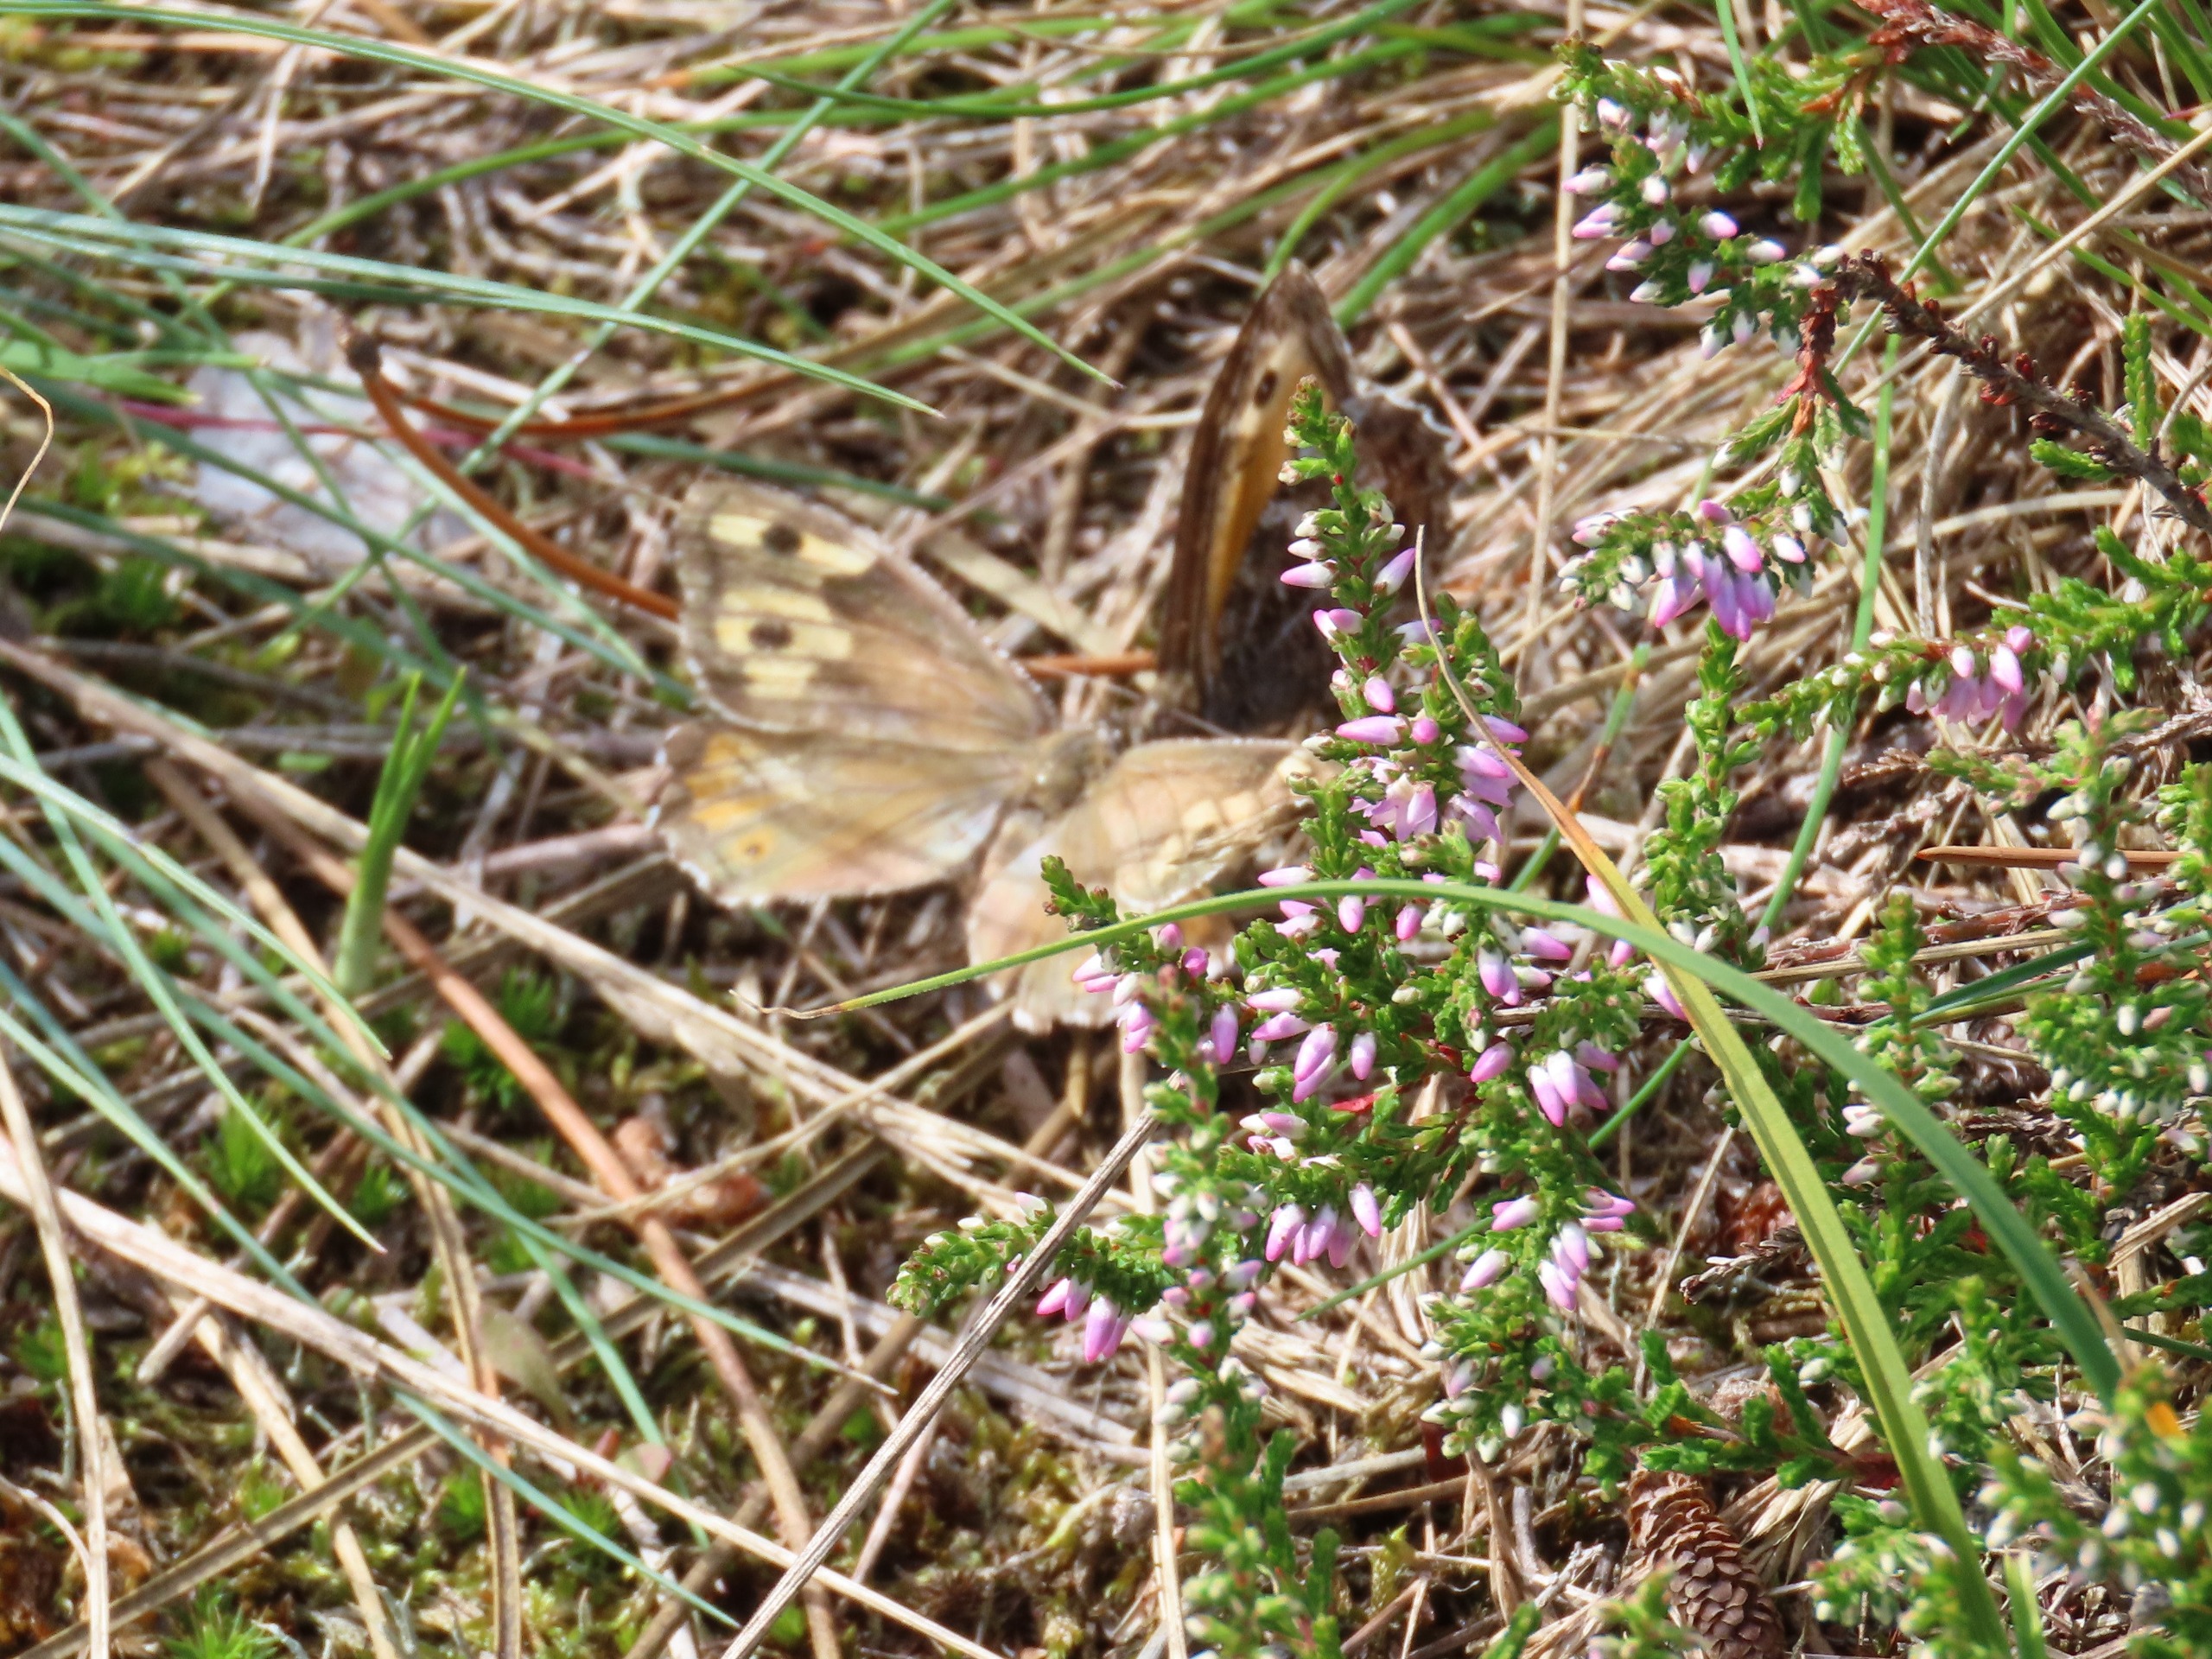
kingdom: Animalia
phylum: Arthropoda
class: Insecta
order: Lepidoptera
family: Nymphalidae
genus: Hipparchia
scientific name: Hipparchia semele
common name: Sandrandøje
